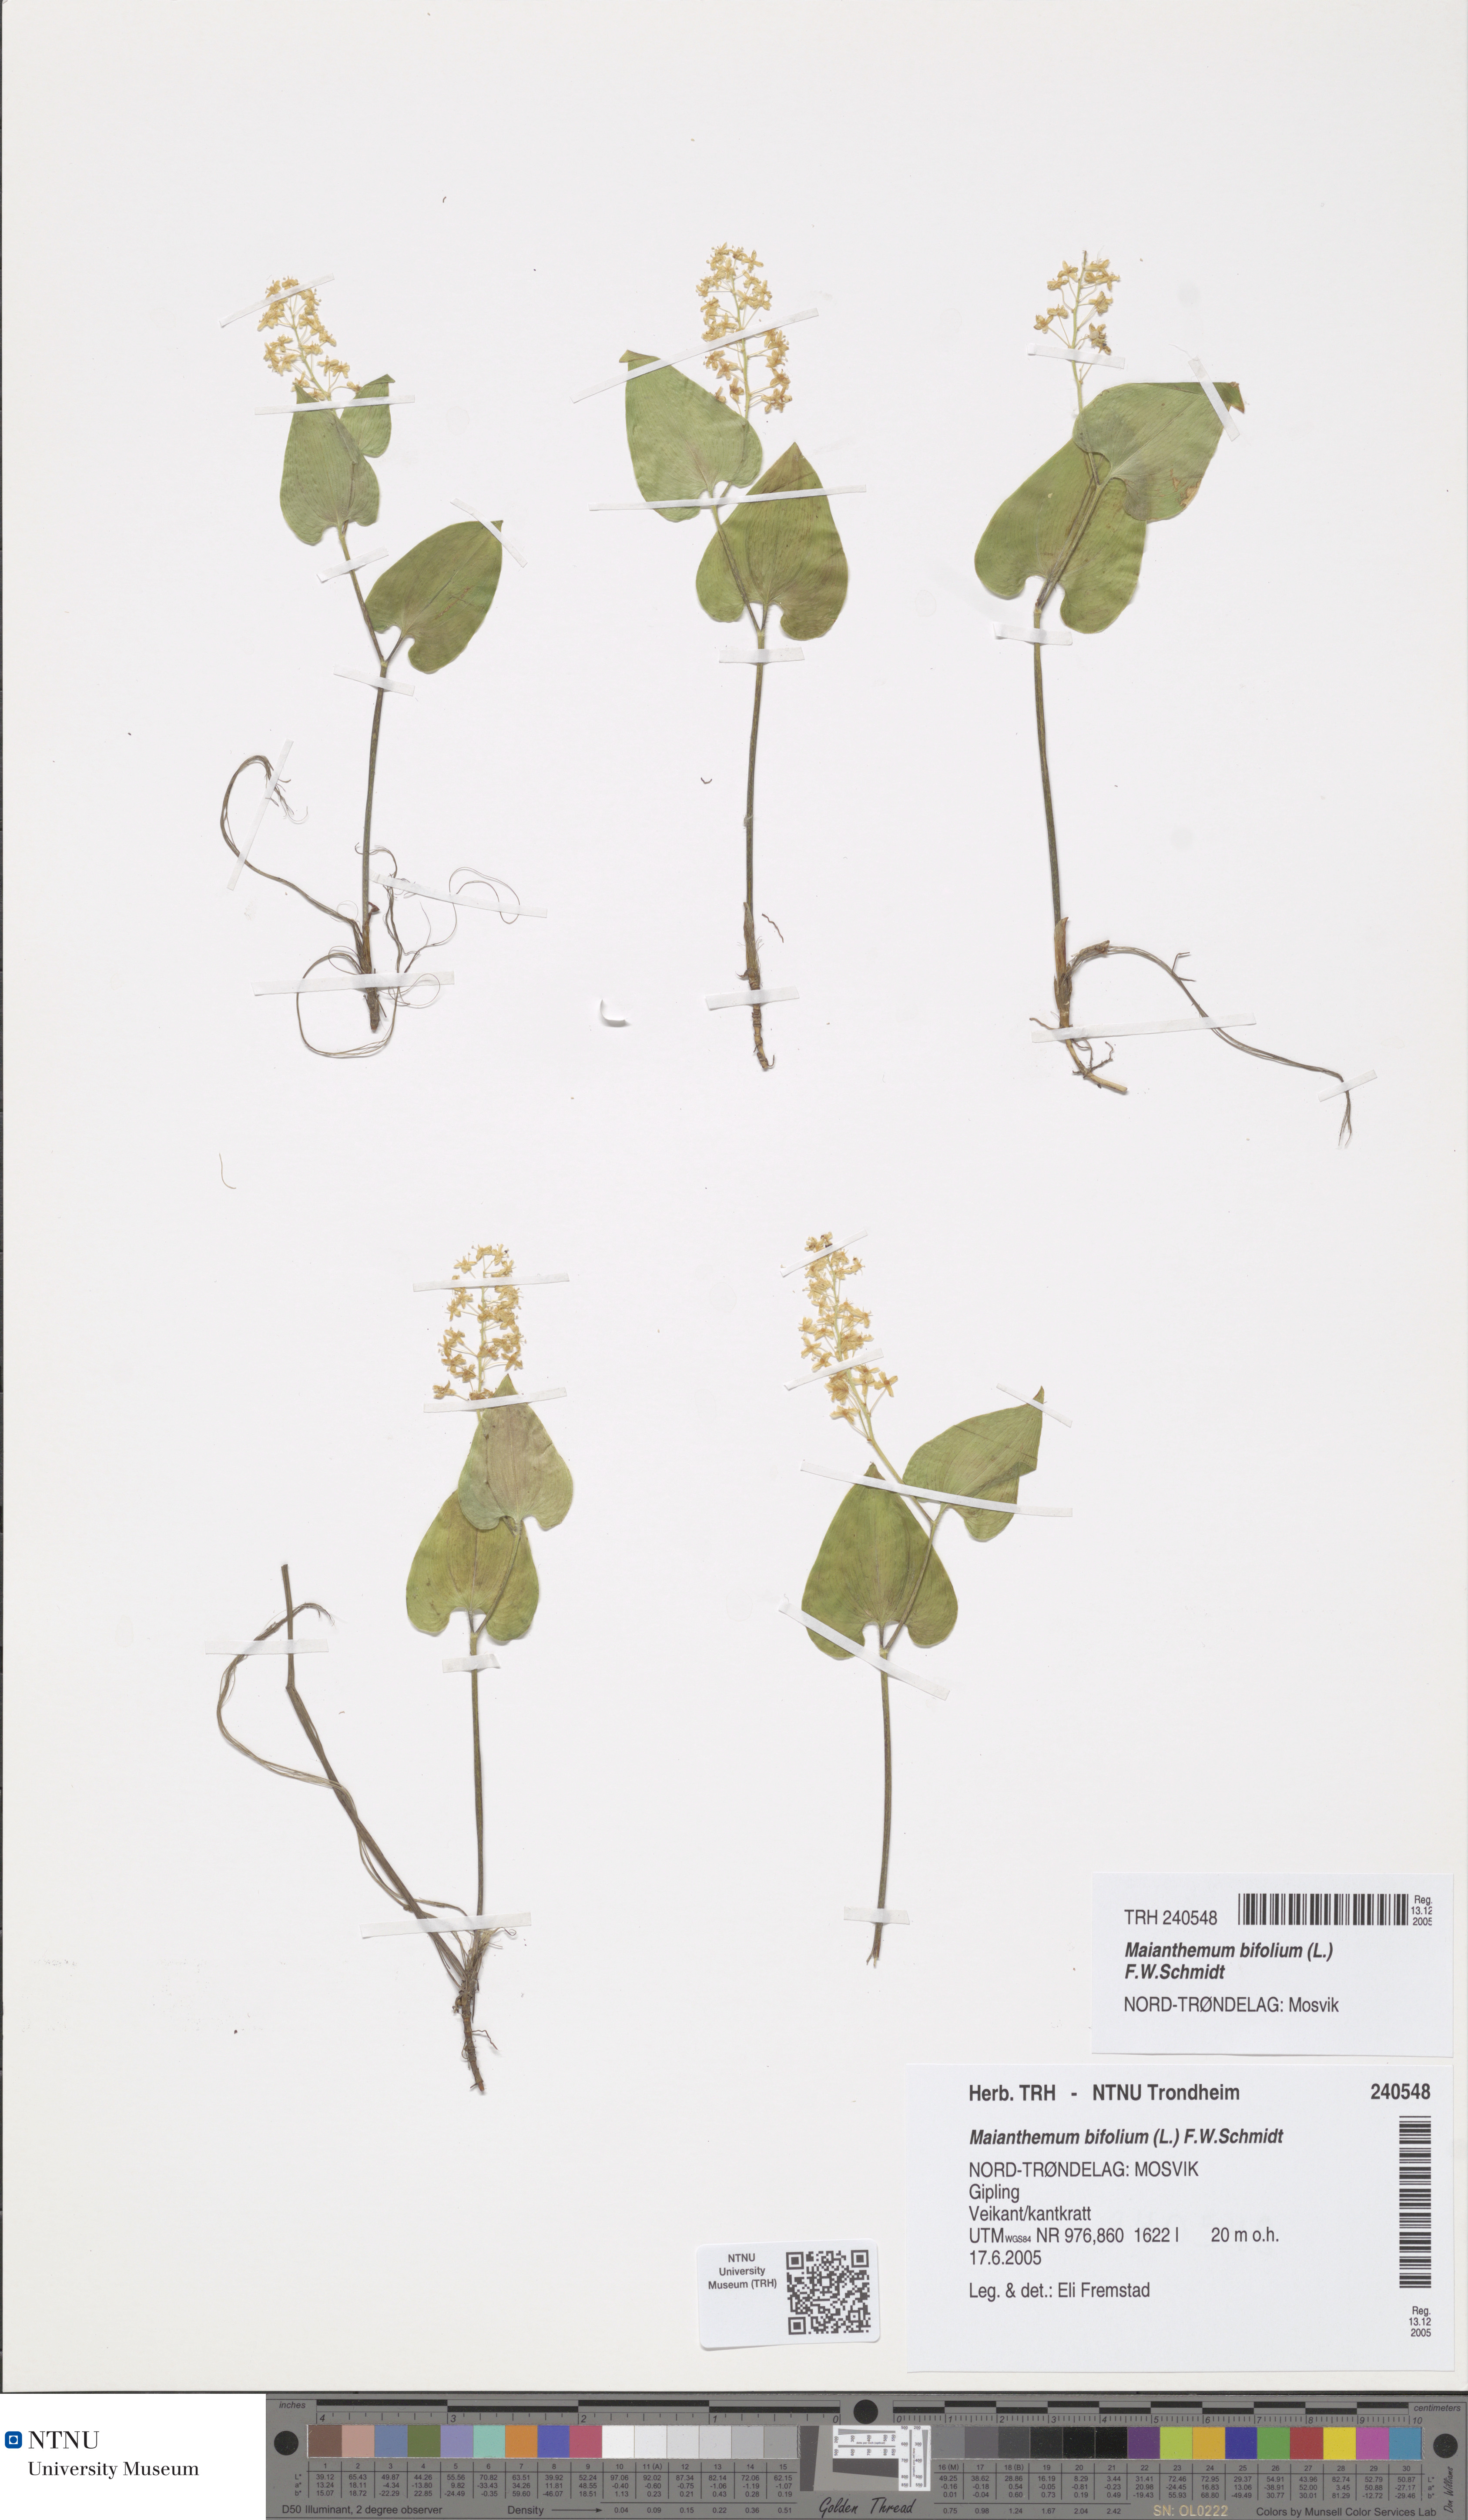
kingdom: Plantae
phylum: Tracheophyta
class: Liliopsida
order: Asparagales
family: Asparagaceae
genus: Maianthemum
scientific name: Maianthemum bifolium
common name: May lily
